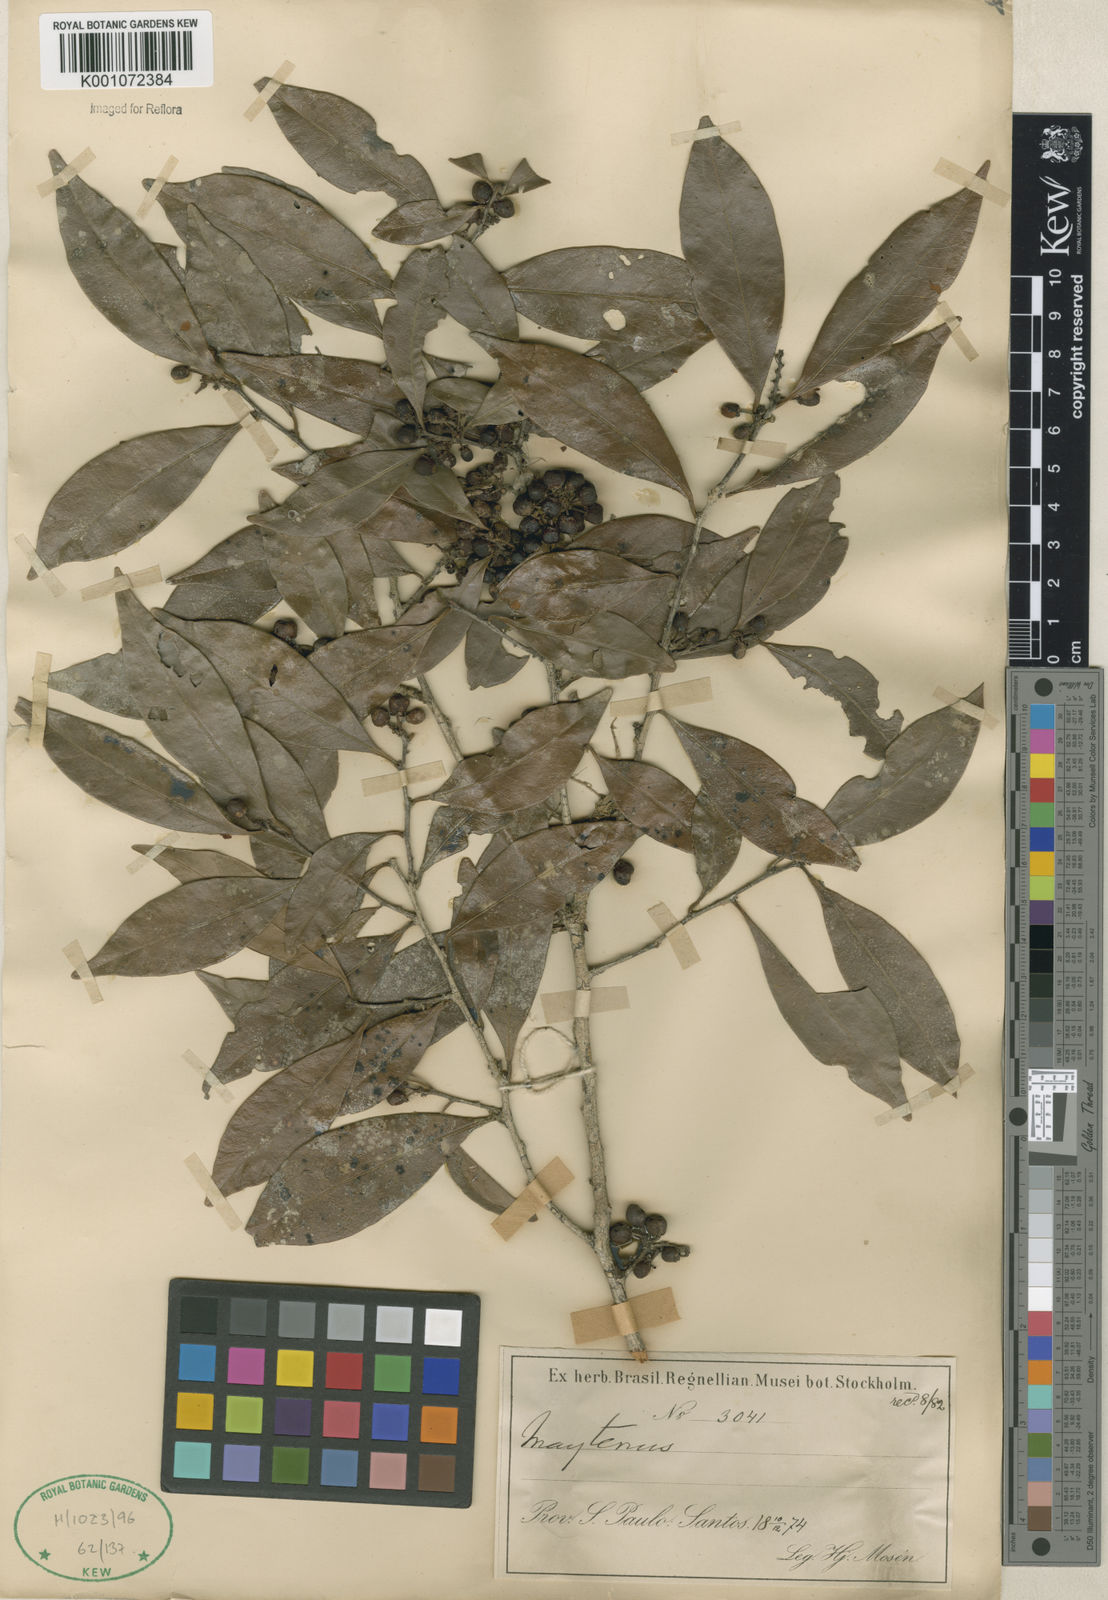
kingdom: Plantae
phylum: Tracheophyta
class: Magnoliopsida
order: Celastrales
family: Celastraceae
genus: Maytenus
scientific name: Maytenus
